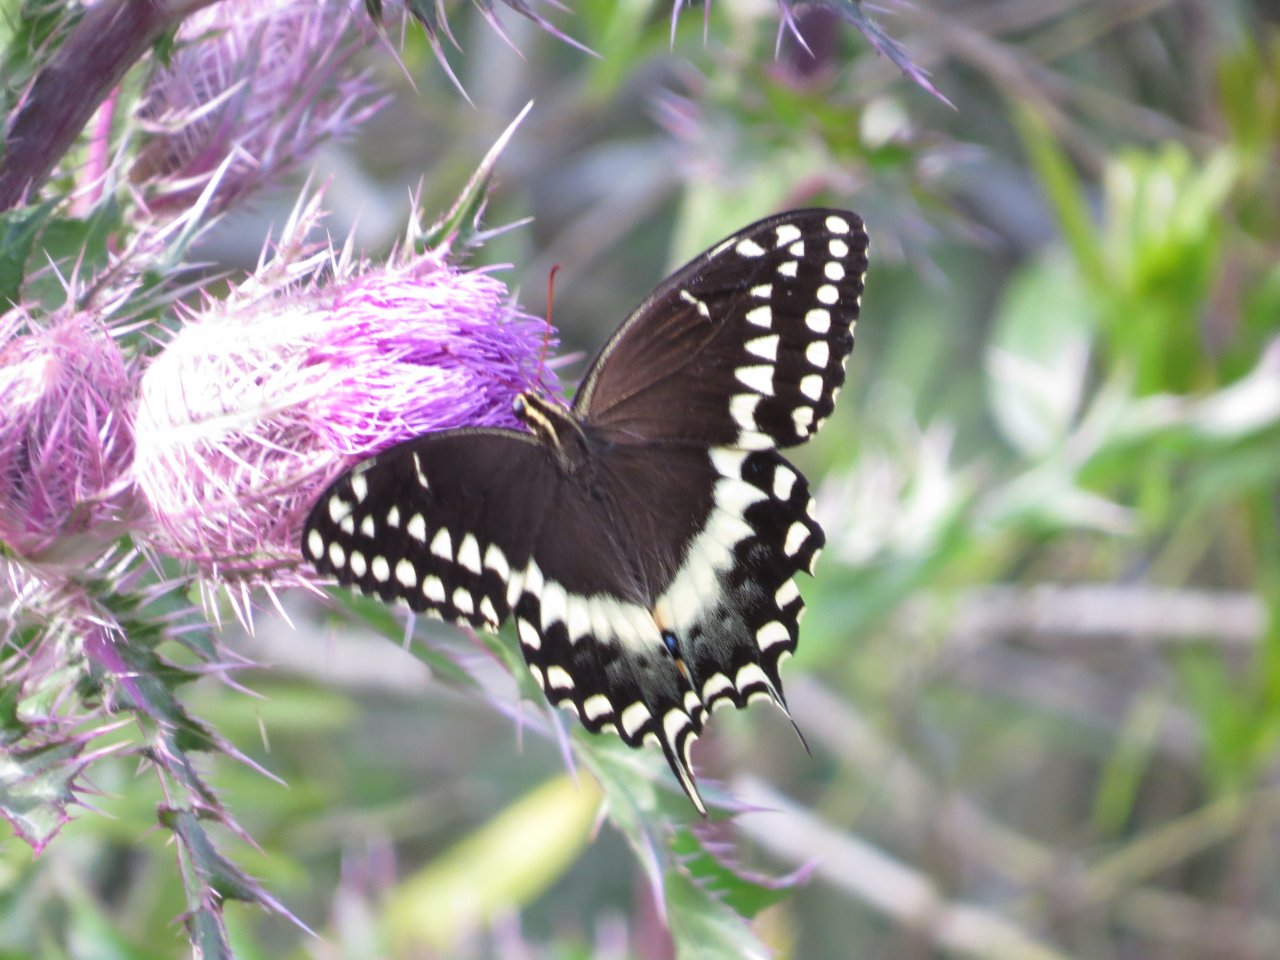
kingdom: Animalia
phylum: Arthropoda
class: Insecta
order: Lepidoptera
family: Papilionidae
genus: Pterourus
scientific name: Pterourus palamedes
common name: Palamedes Swallowtail
